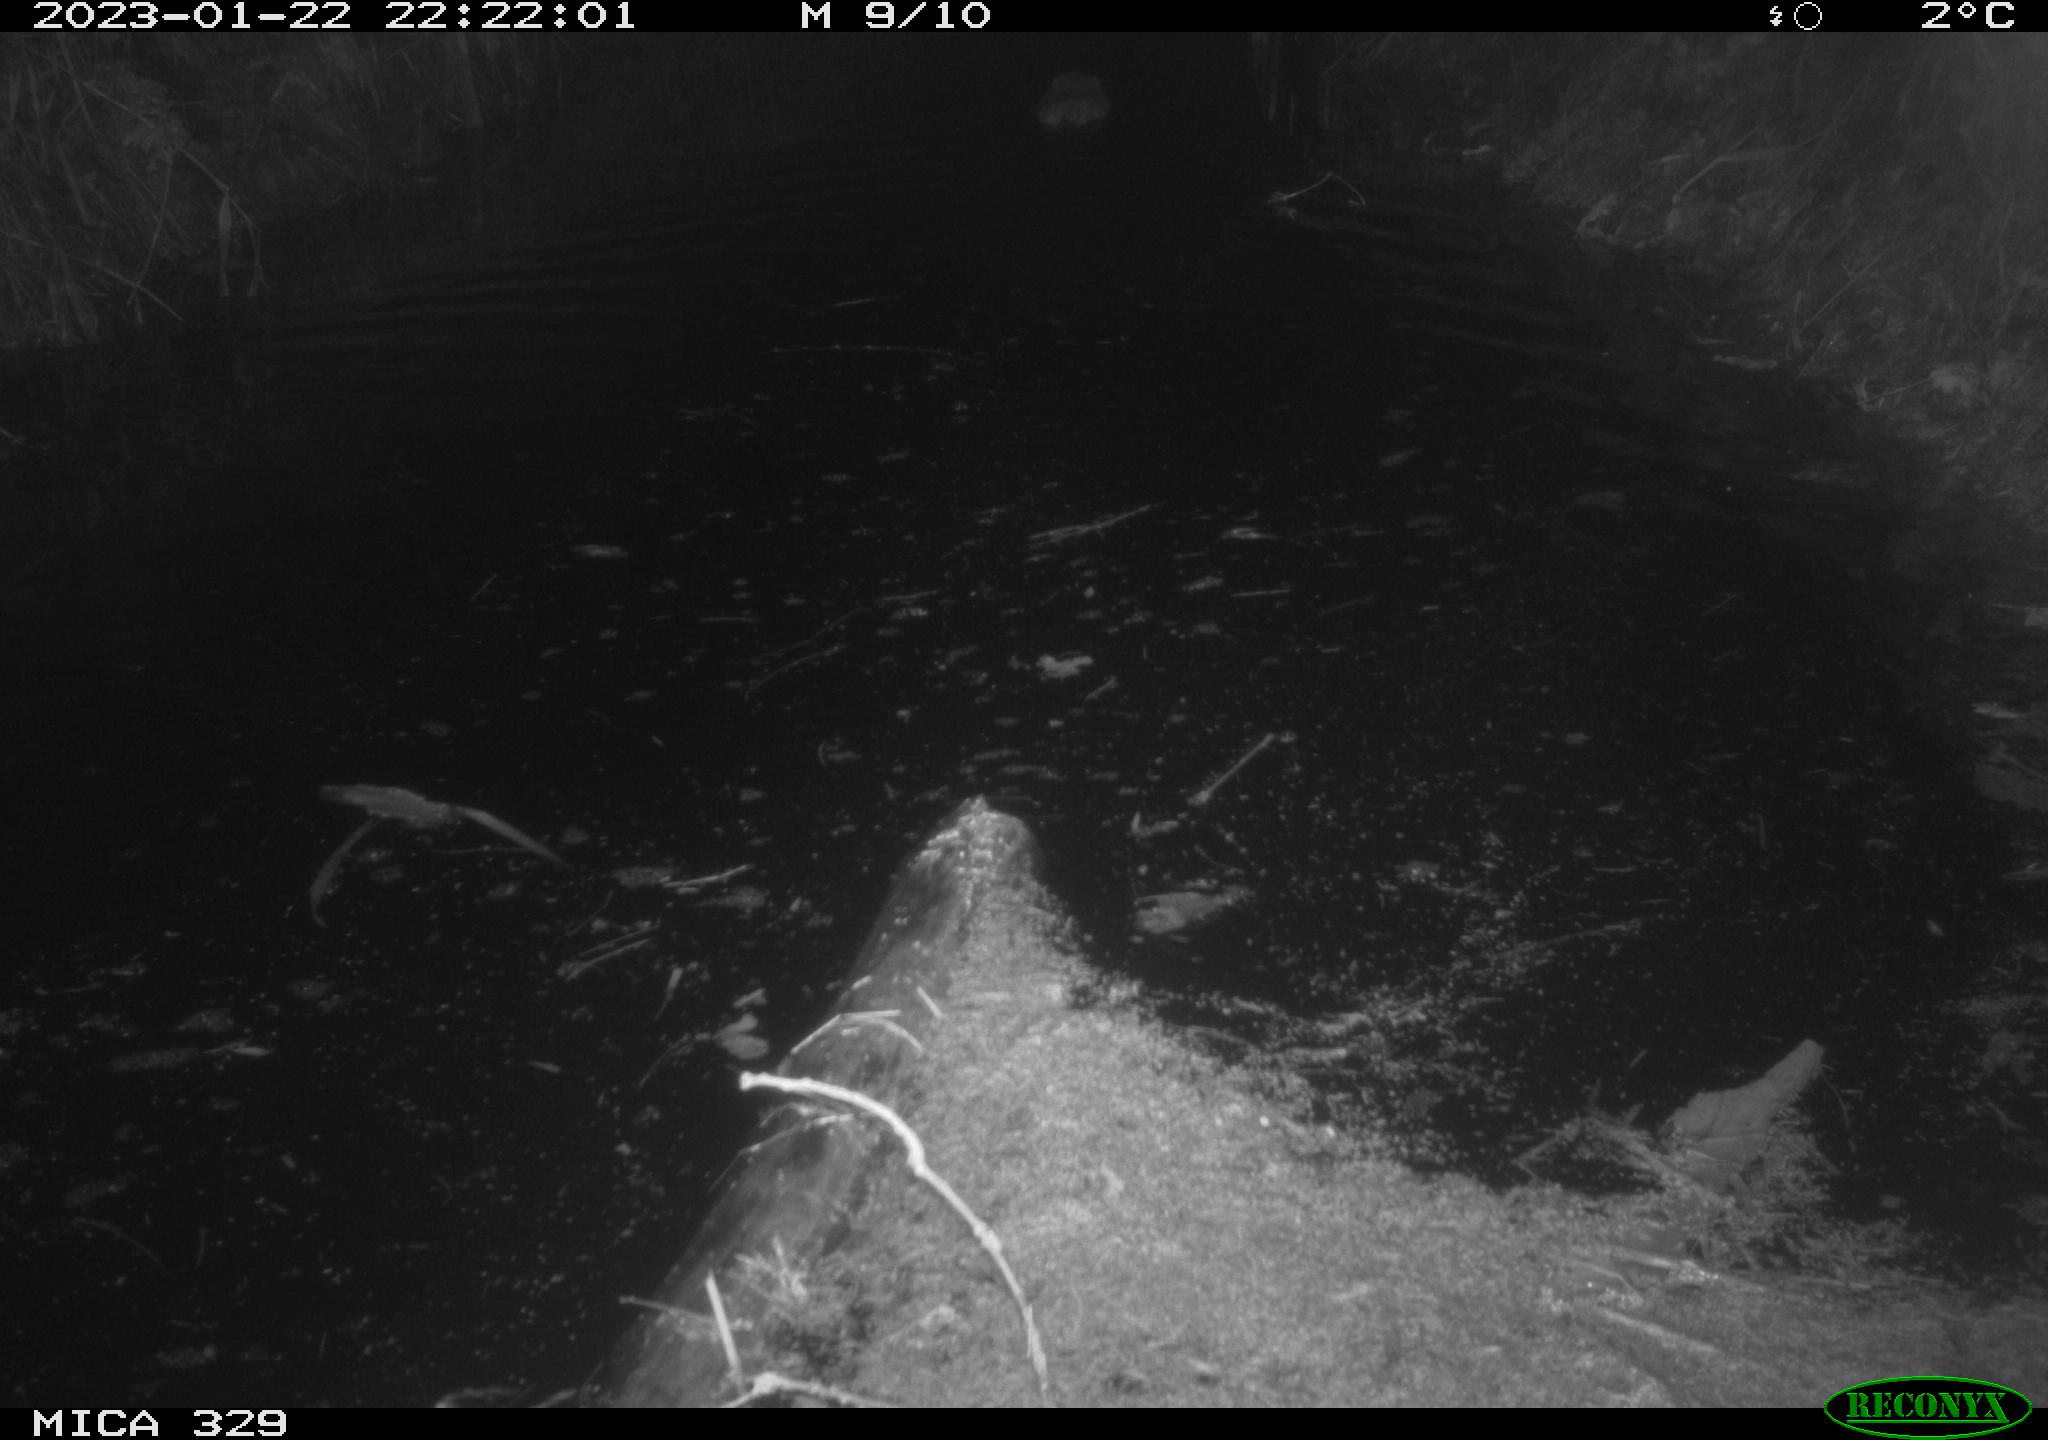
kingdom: Animalia
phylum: Chordata
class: Mammalia
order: Rodentia
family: Cricetidae
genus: Ondatra
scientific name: Ondatra zibethicus
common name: Muskrat
